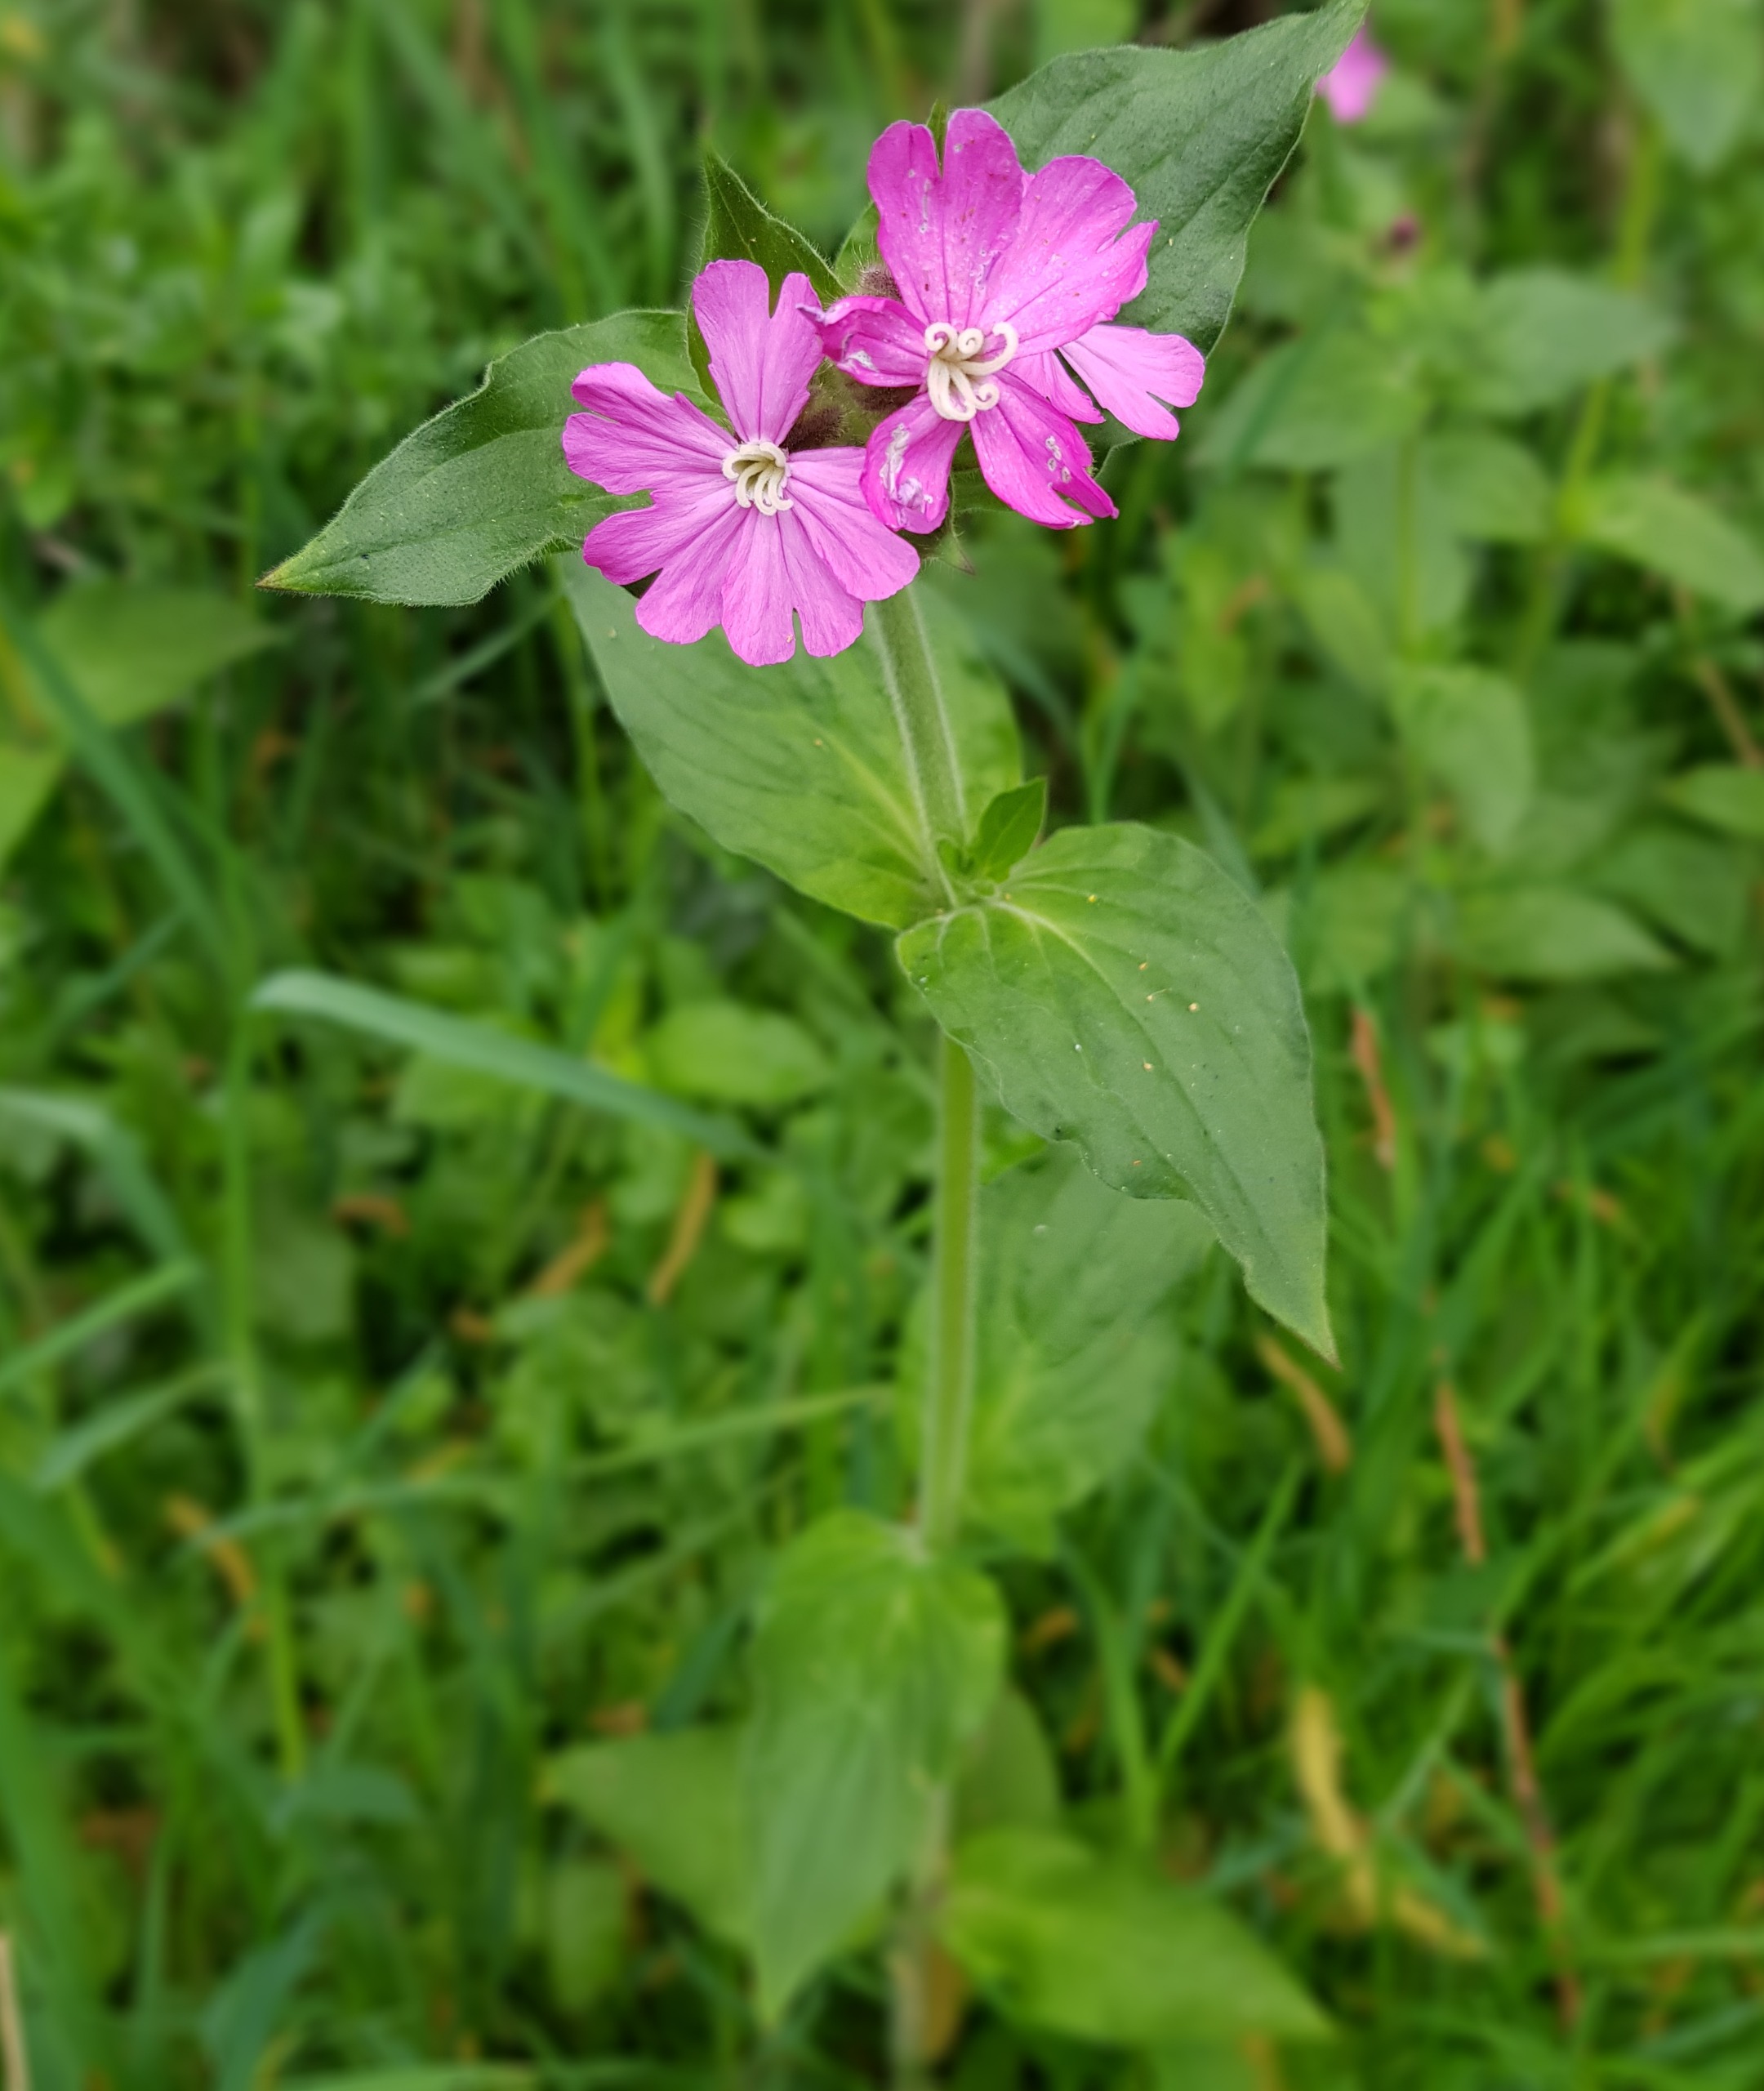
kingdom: Plantae
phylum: Tracheophyta
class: Magnoliopsida
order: Caryophyllales
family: Caryophyllaceae
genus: Silene
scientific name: Silene dioica
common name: Dagpragtstjerne
